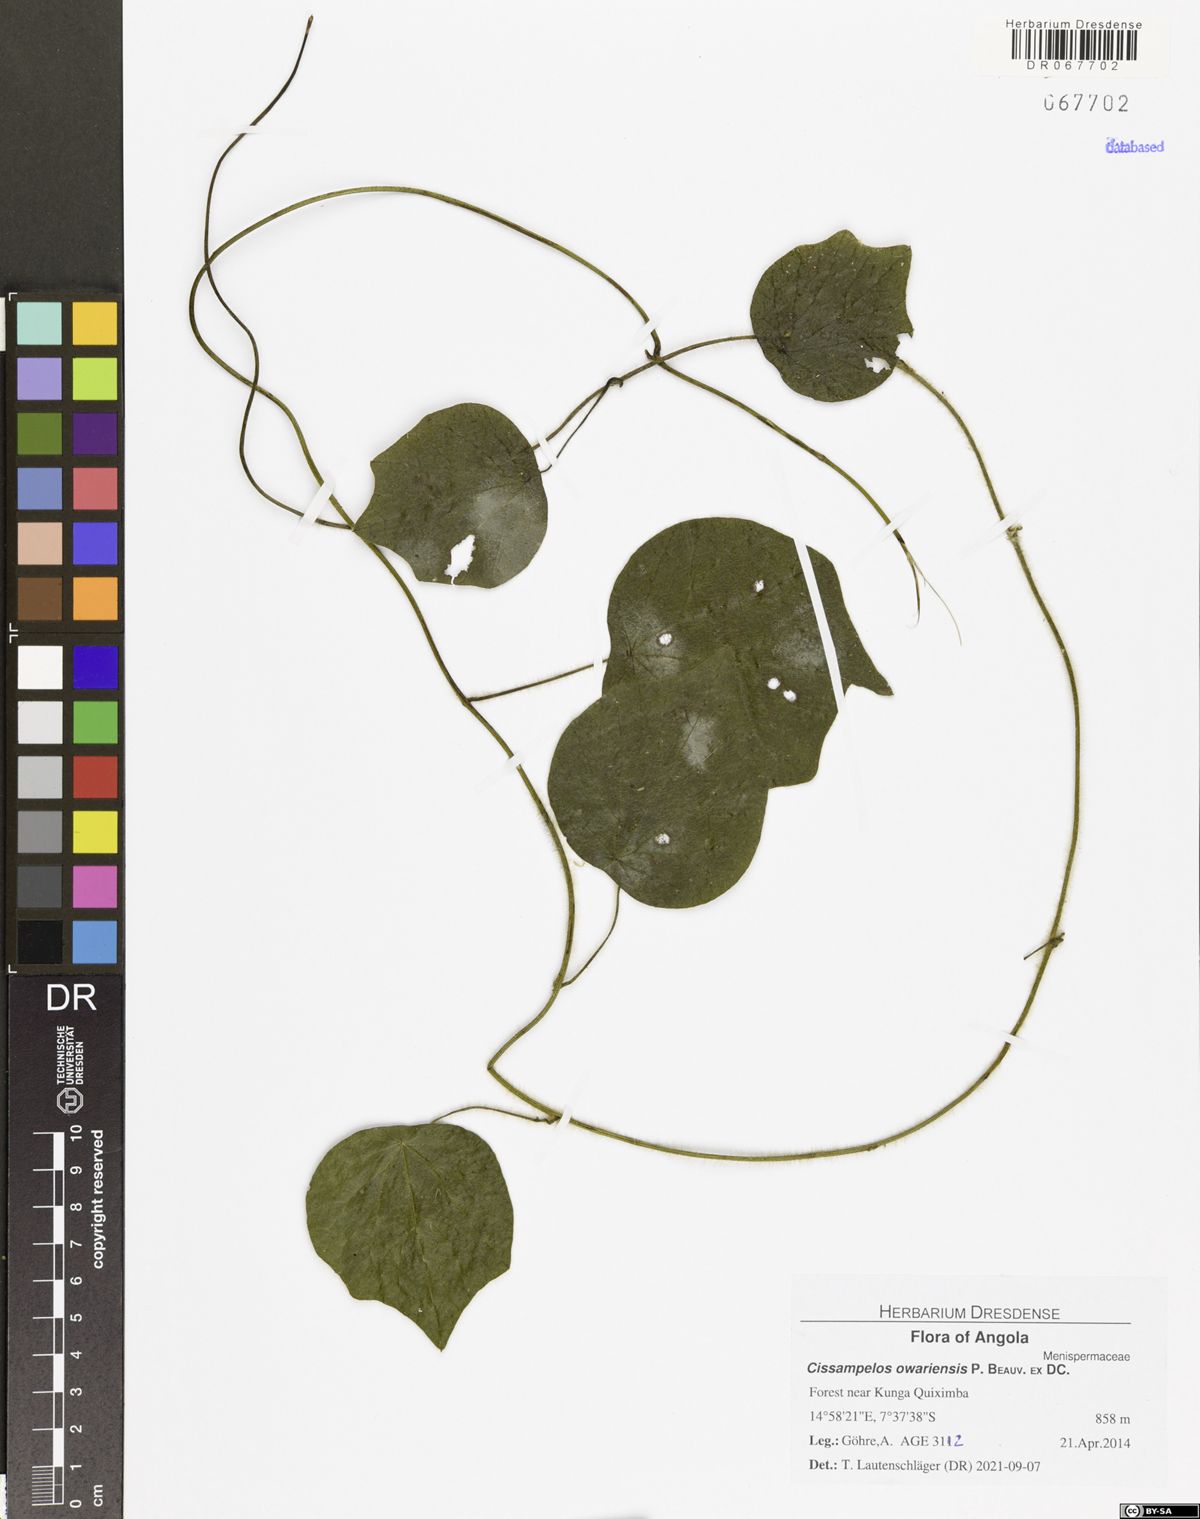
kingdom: Plantae
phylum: Tracheophyta
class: Magnoliopsida
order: Ranunculales
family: Menispermaceae
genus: Cissampelos
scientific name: Cissampelos owariensis
